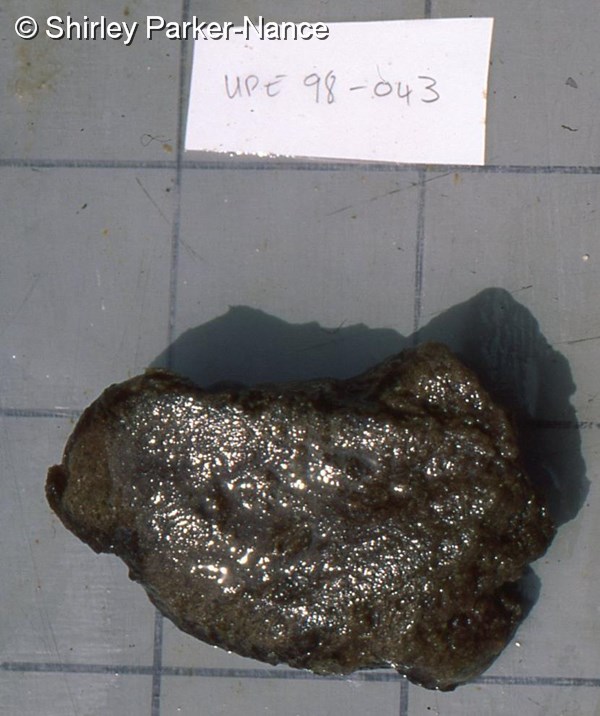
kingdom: Animalia
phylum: Chordata
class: Ascidiacea
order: Aplousobranchia
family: Polyclinidae
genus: Aplidiopsis
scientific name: Aplidiopsis
